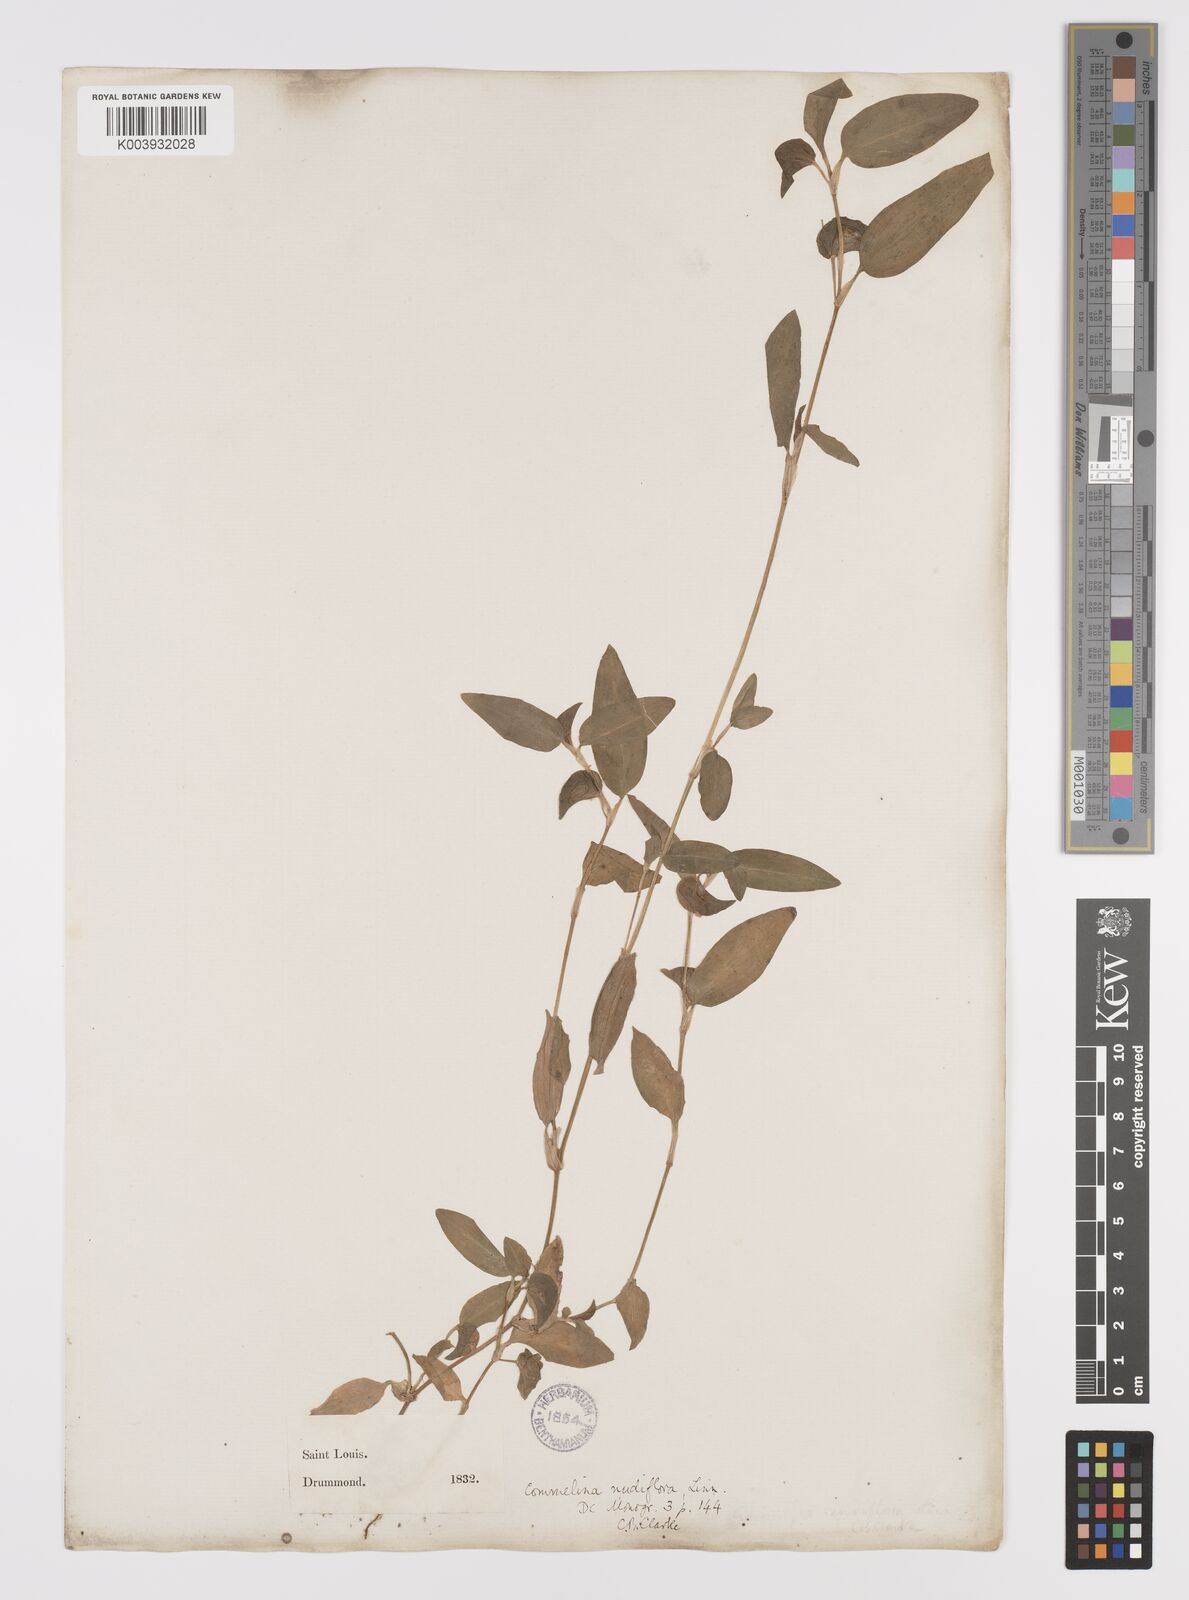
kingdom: Plantae
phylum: Tracheophyta
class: Liliopsida
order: Commelinales
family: Commelinaceae
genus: Commelina
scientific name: Commelina diffusa
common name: Climbing dayflower
